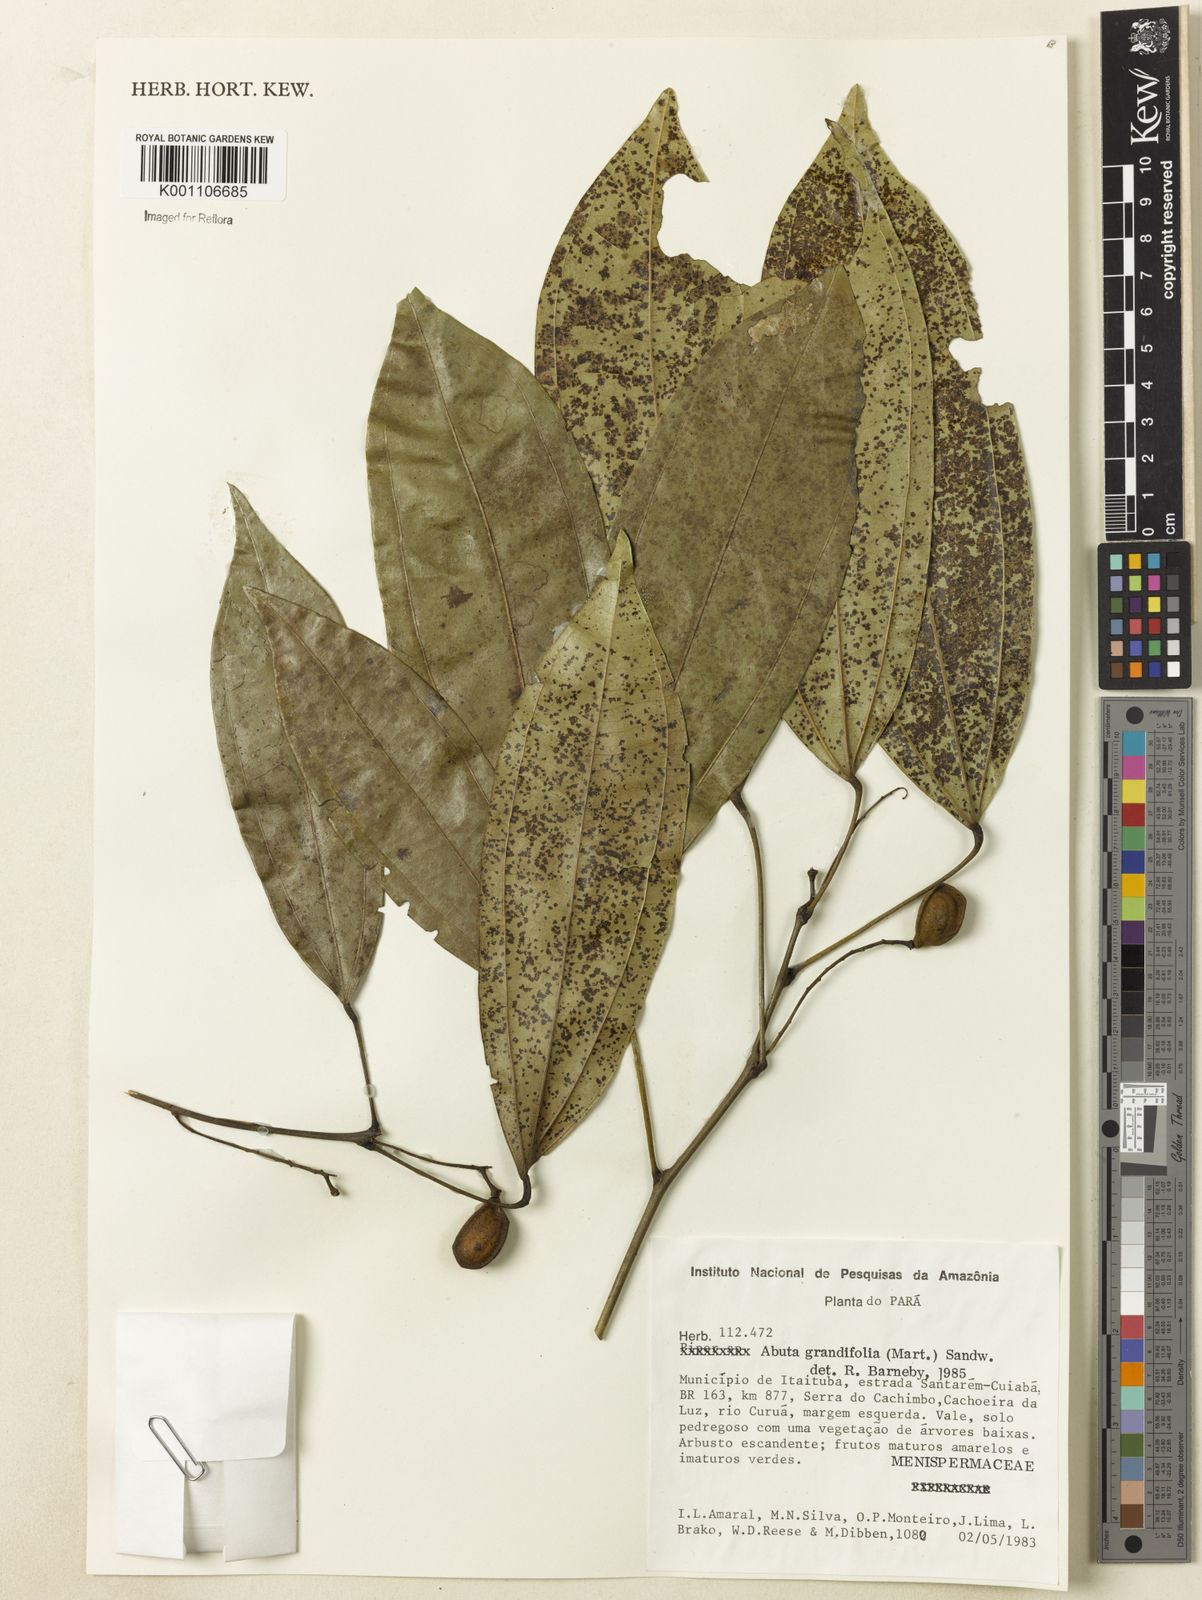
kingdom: Plantae
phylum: Tracheophyta
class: Magnoliopsida
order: Ranunculales
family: Menispermaceae
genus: Abuta
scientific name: Abuta grandifolia
